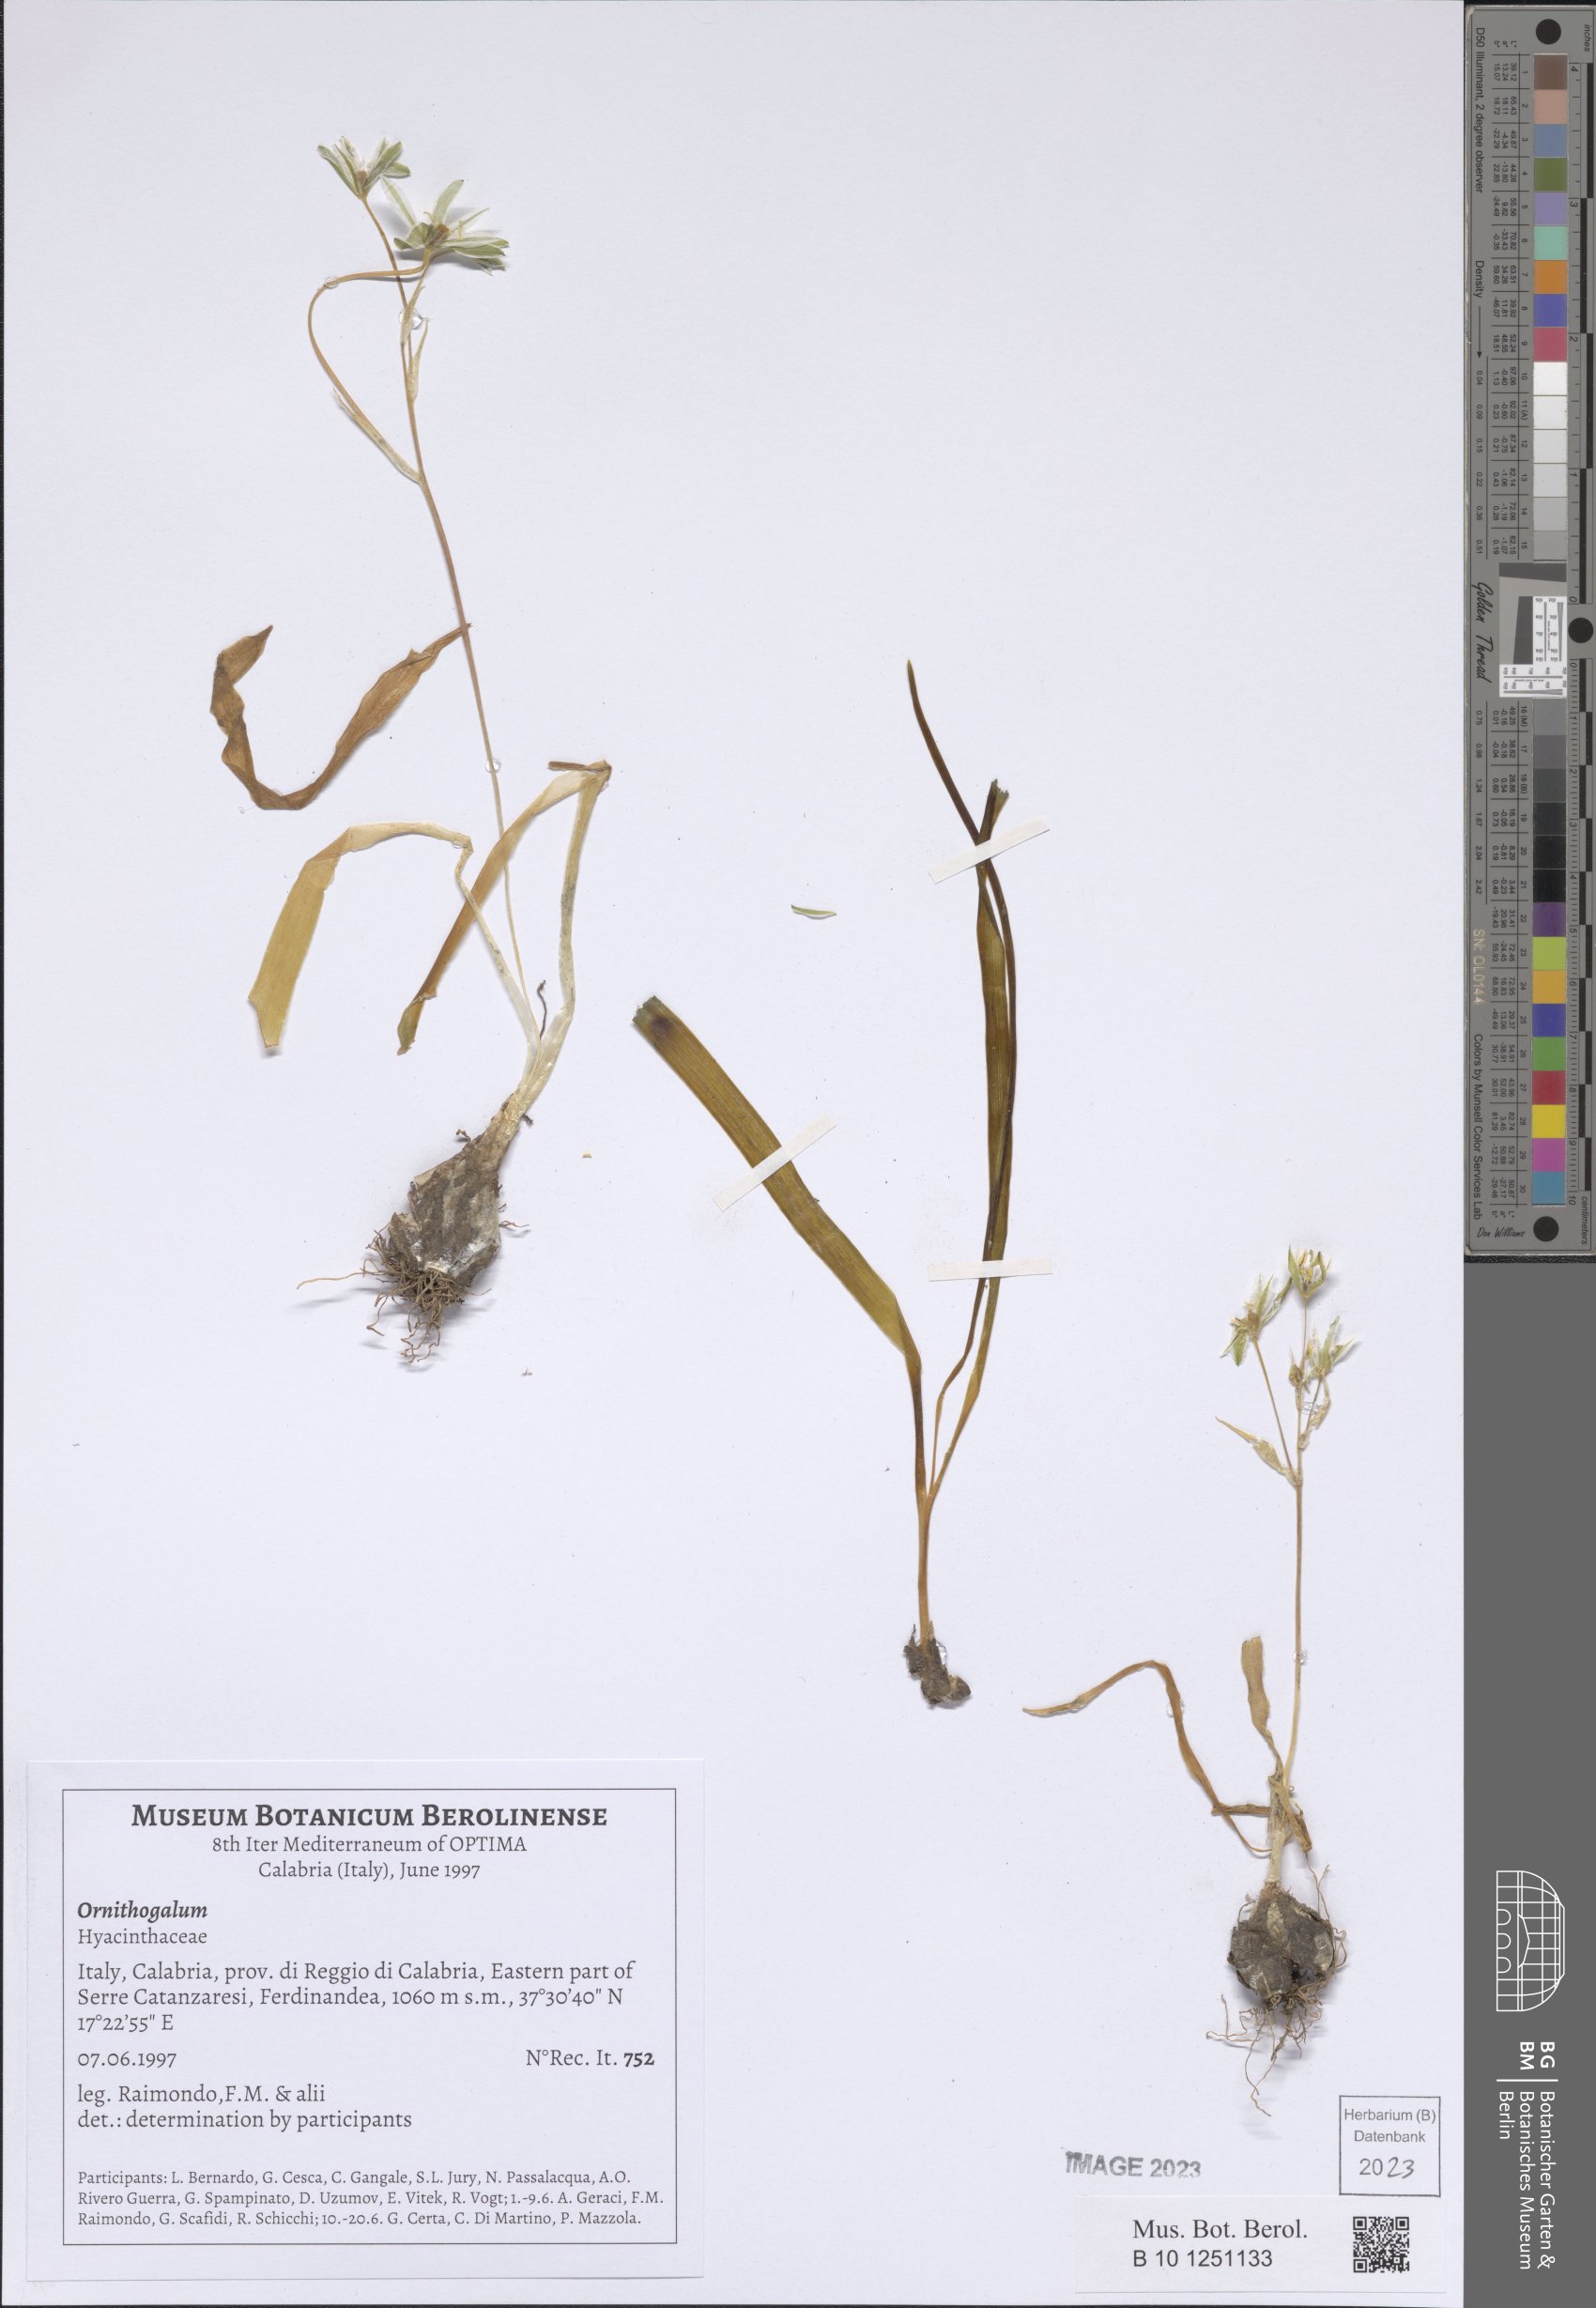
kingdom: Plantae
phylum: Tracheophyta
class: Liliopsida
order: Asparagales
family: Asparagaceae
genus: Ornithogalum
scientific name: Ornithogalum
